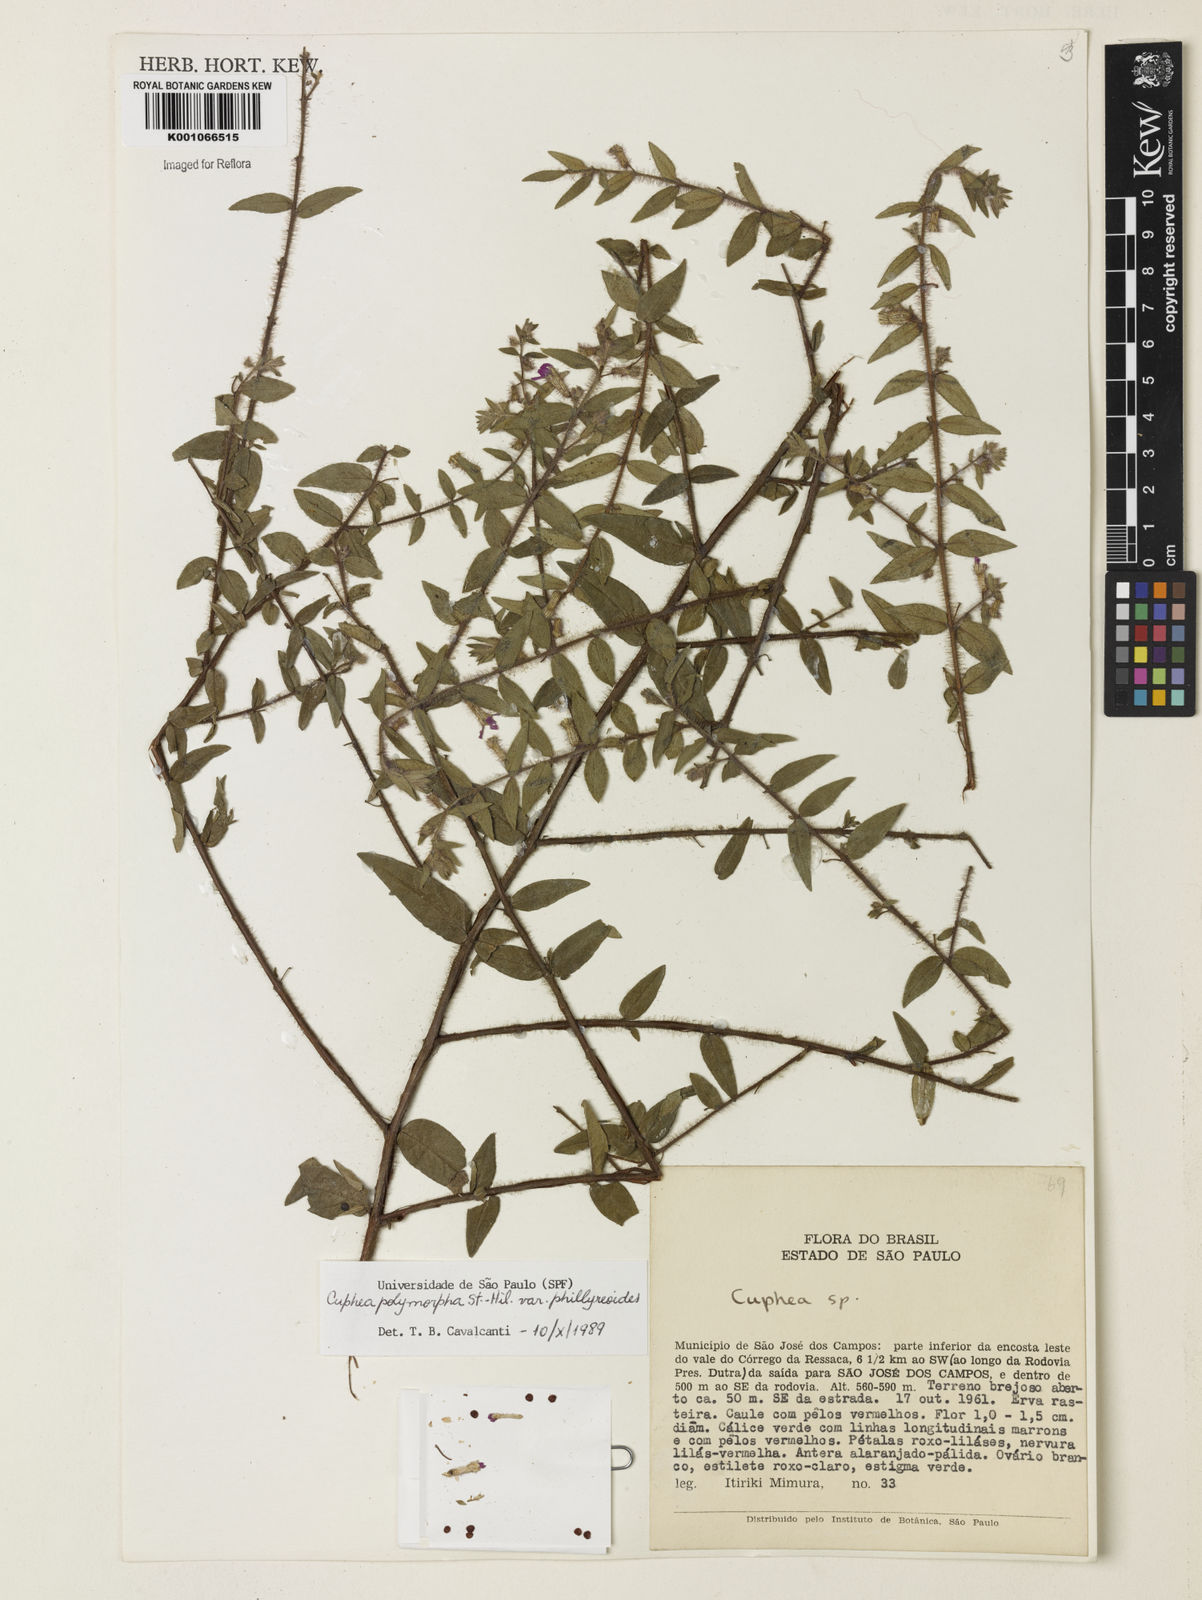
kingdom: Plantae
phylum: Tracheophyta
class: Magnoliopsida
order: Myrtales
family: Lythraceae
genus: Cuphea
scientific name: Cuphea polymorpha
